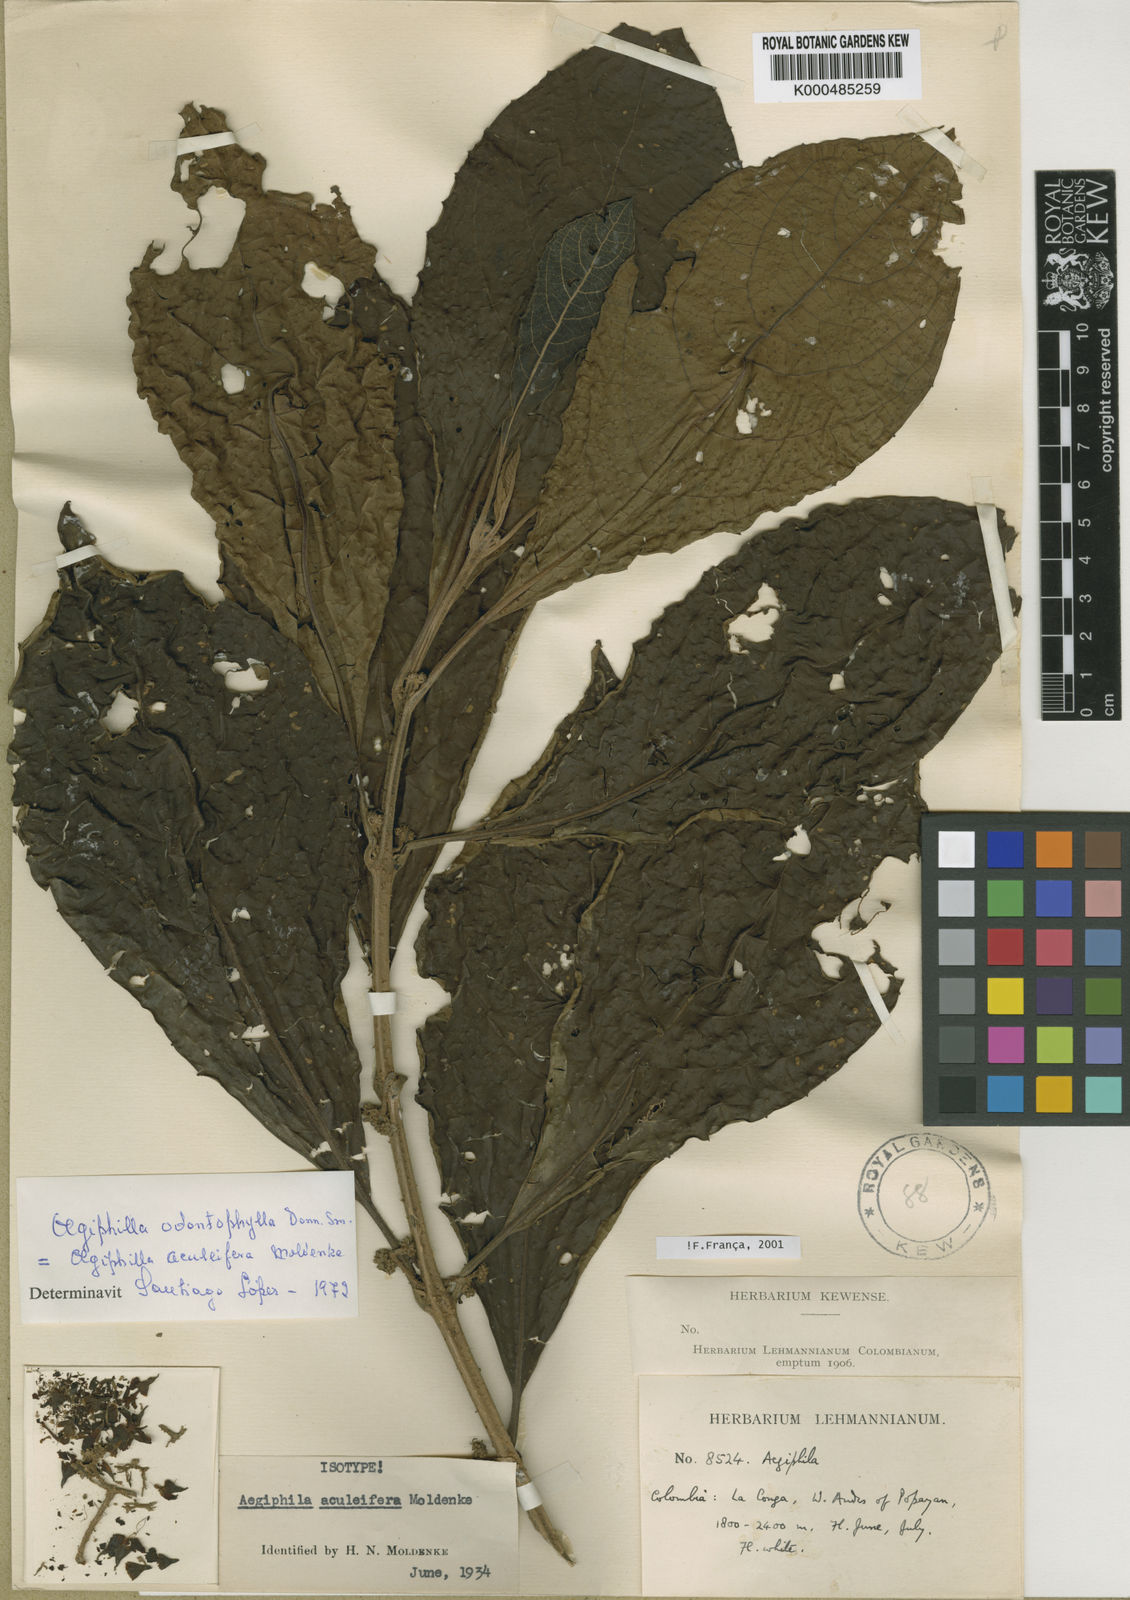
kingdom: Plantae
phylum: Tracheophyta
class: Magnoliopsida
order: Lamiales
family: Lamiaceae
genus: Aegiphila
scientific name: Aegiphila aculeifera
